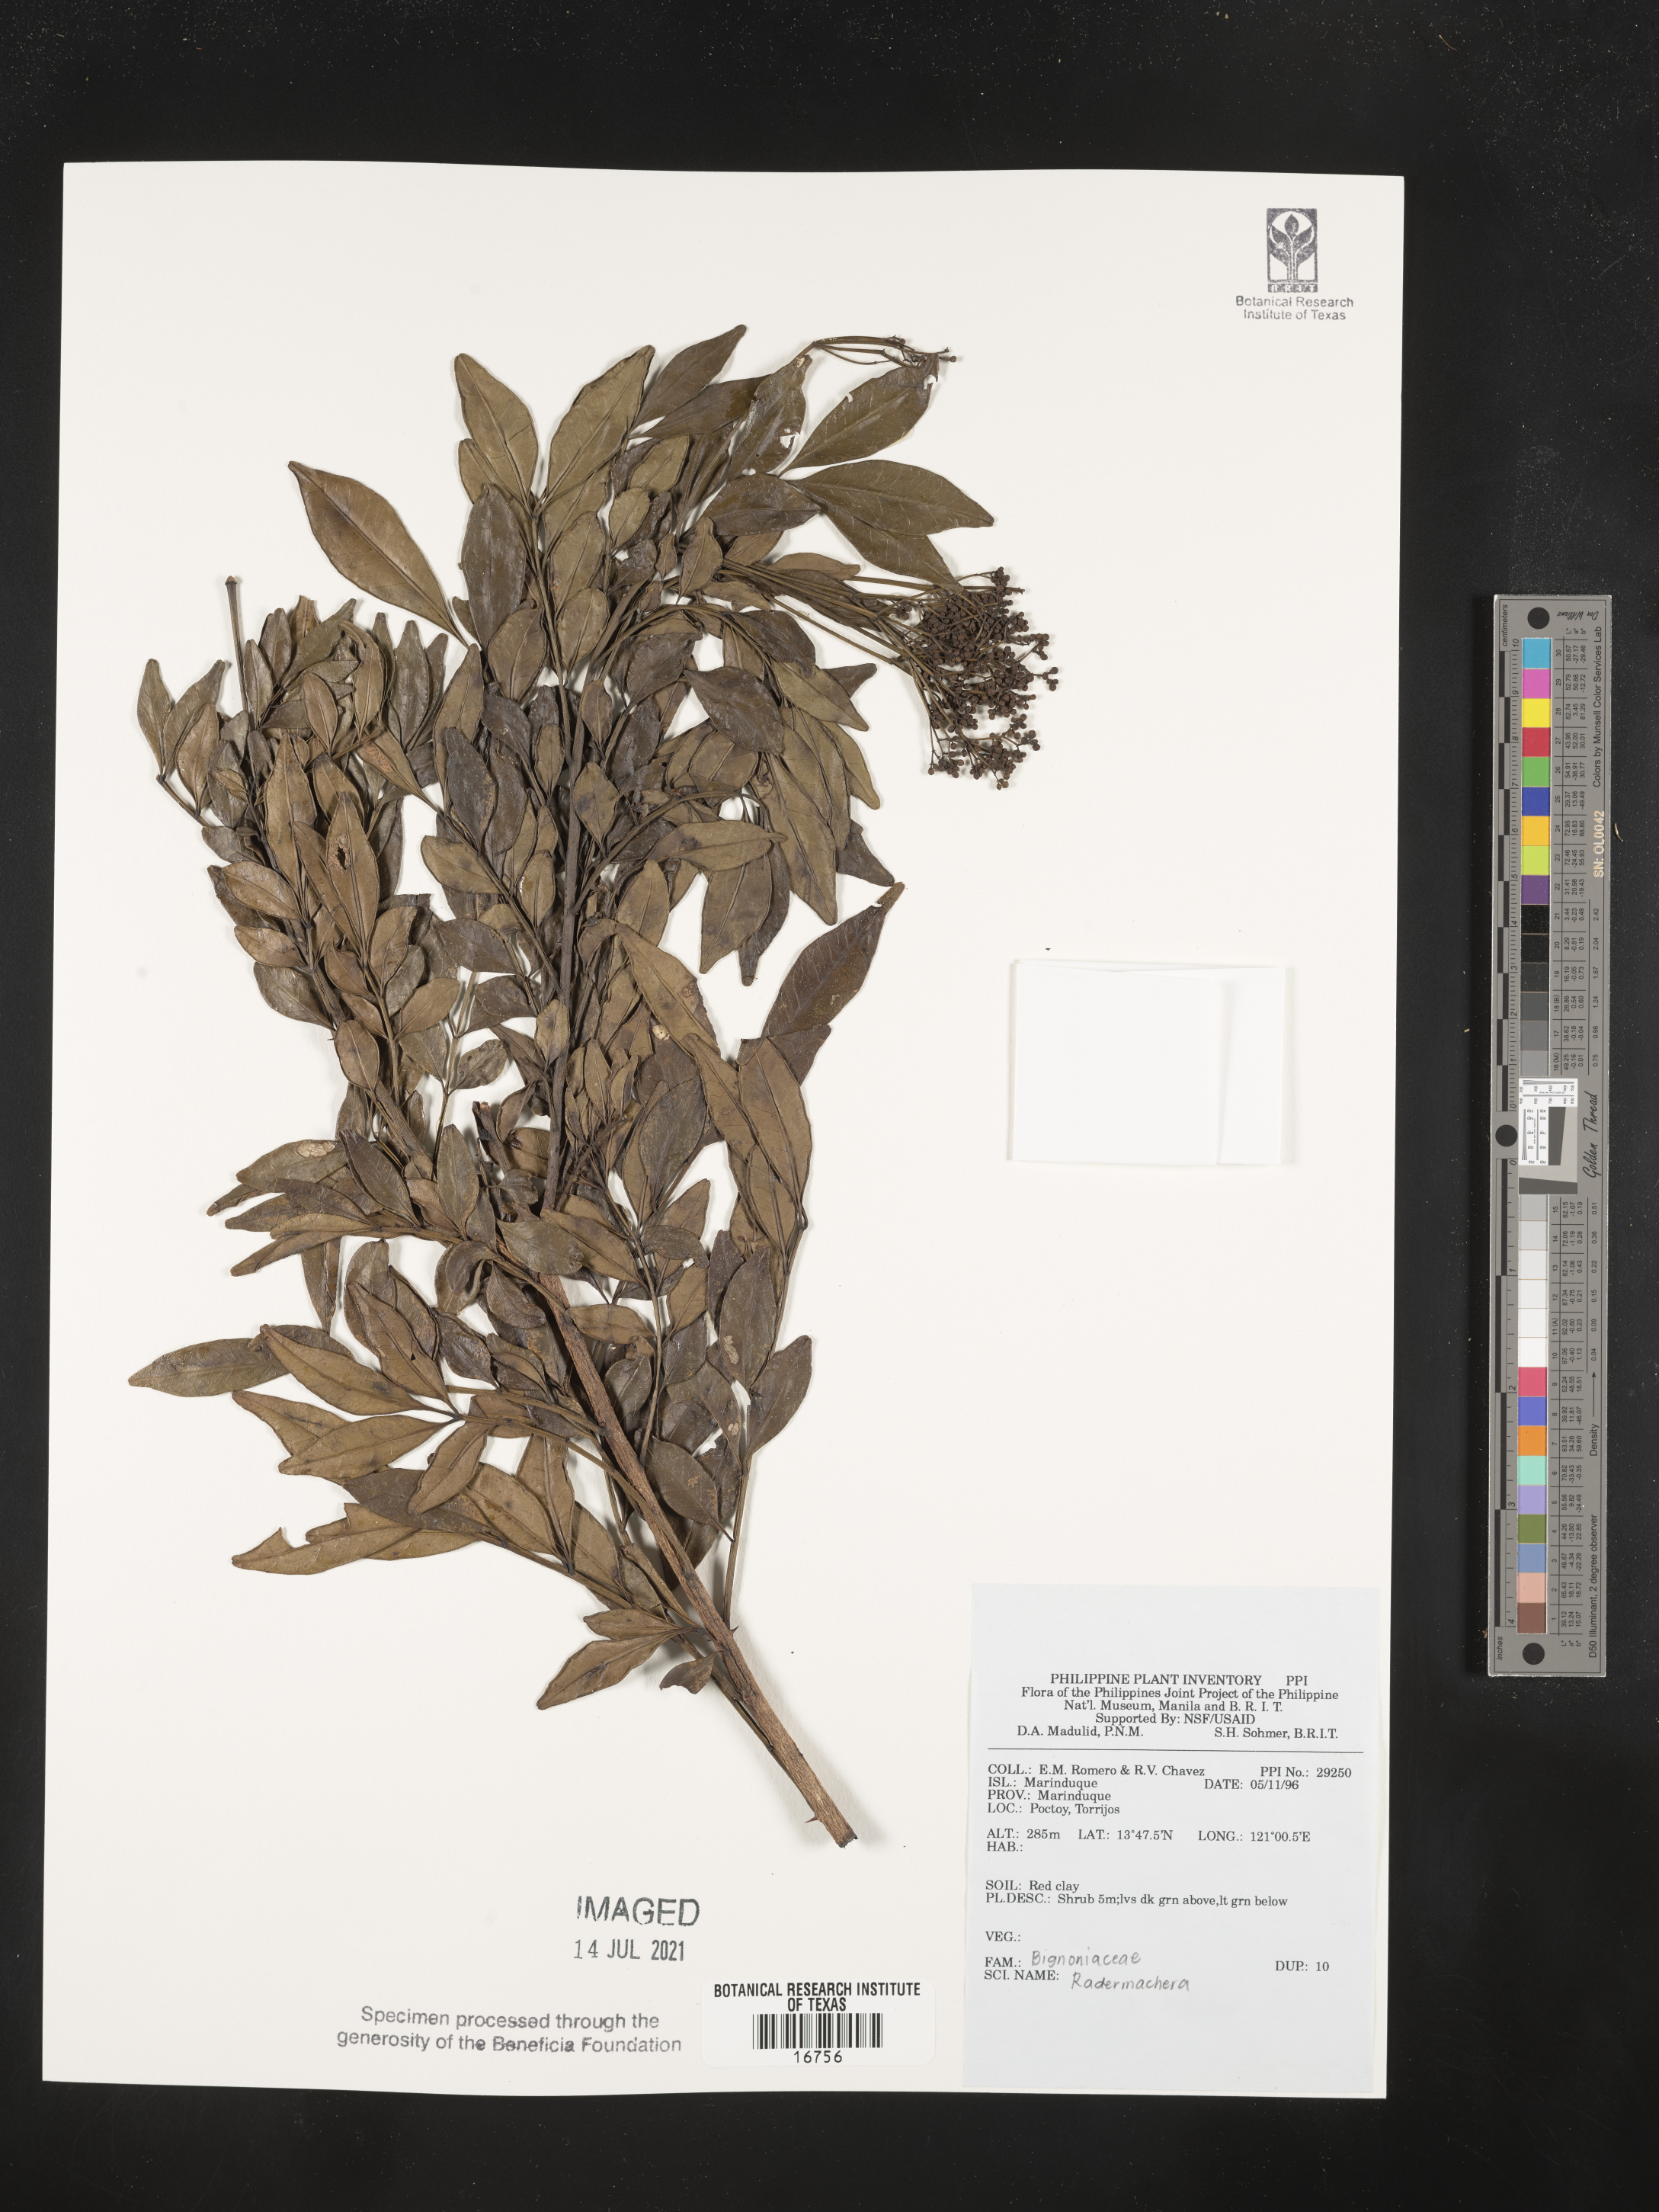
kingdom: Plantae
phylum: Tracheophyta
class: Magnoliopsida
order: Lamiales
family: Bignoniaceae
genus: Radermachera
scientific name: Radermachera
